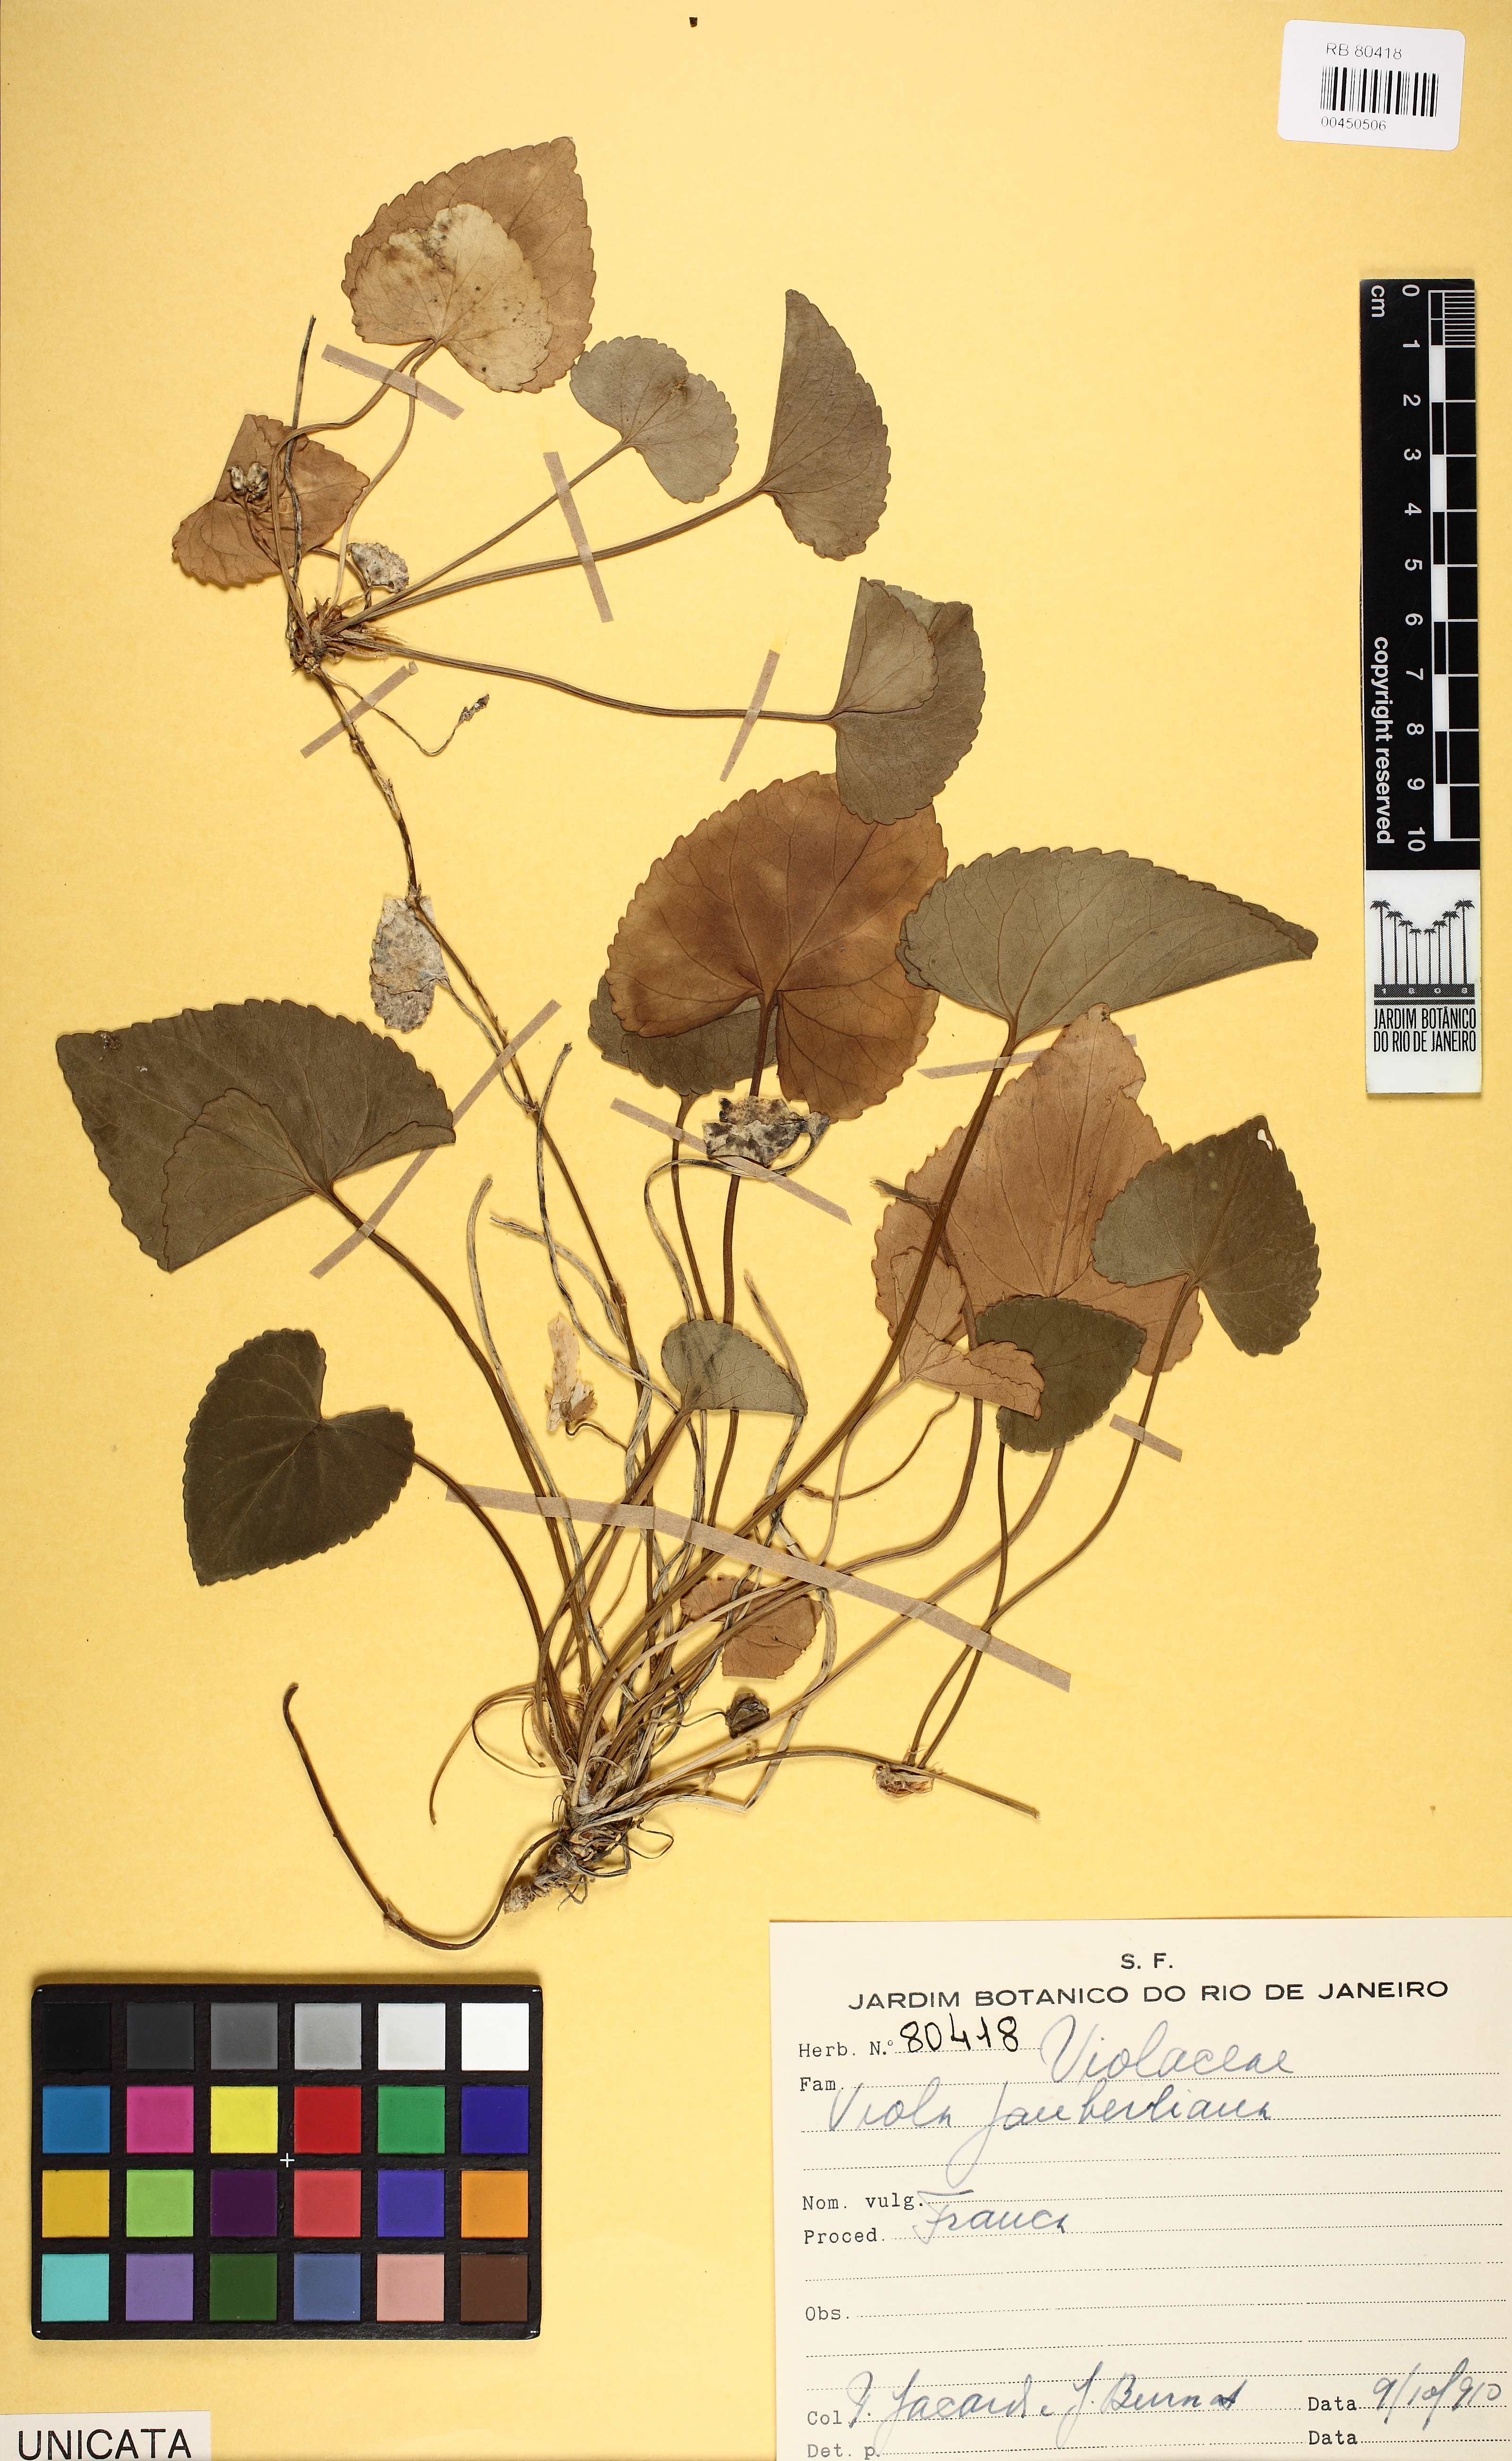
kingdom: Plantae
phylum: Tracheophyta
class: Magnoliopsida
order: Malpighiales
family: Violaceae
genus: Viola
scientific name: Viola jaubertiana
